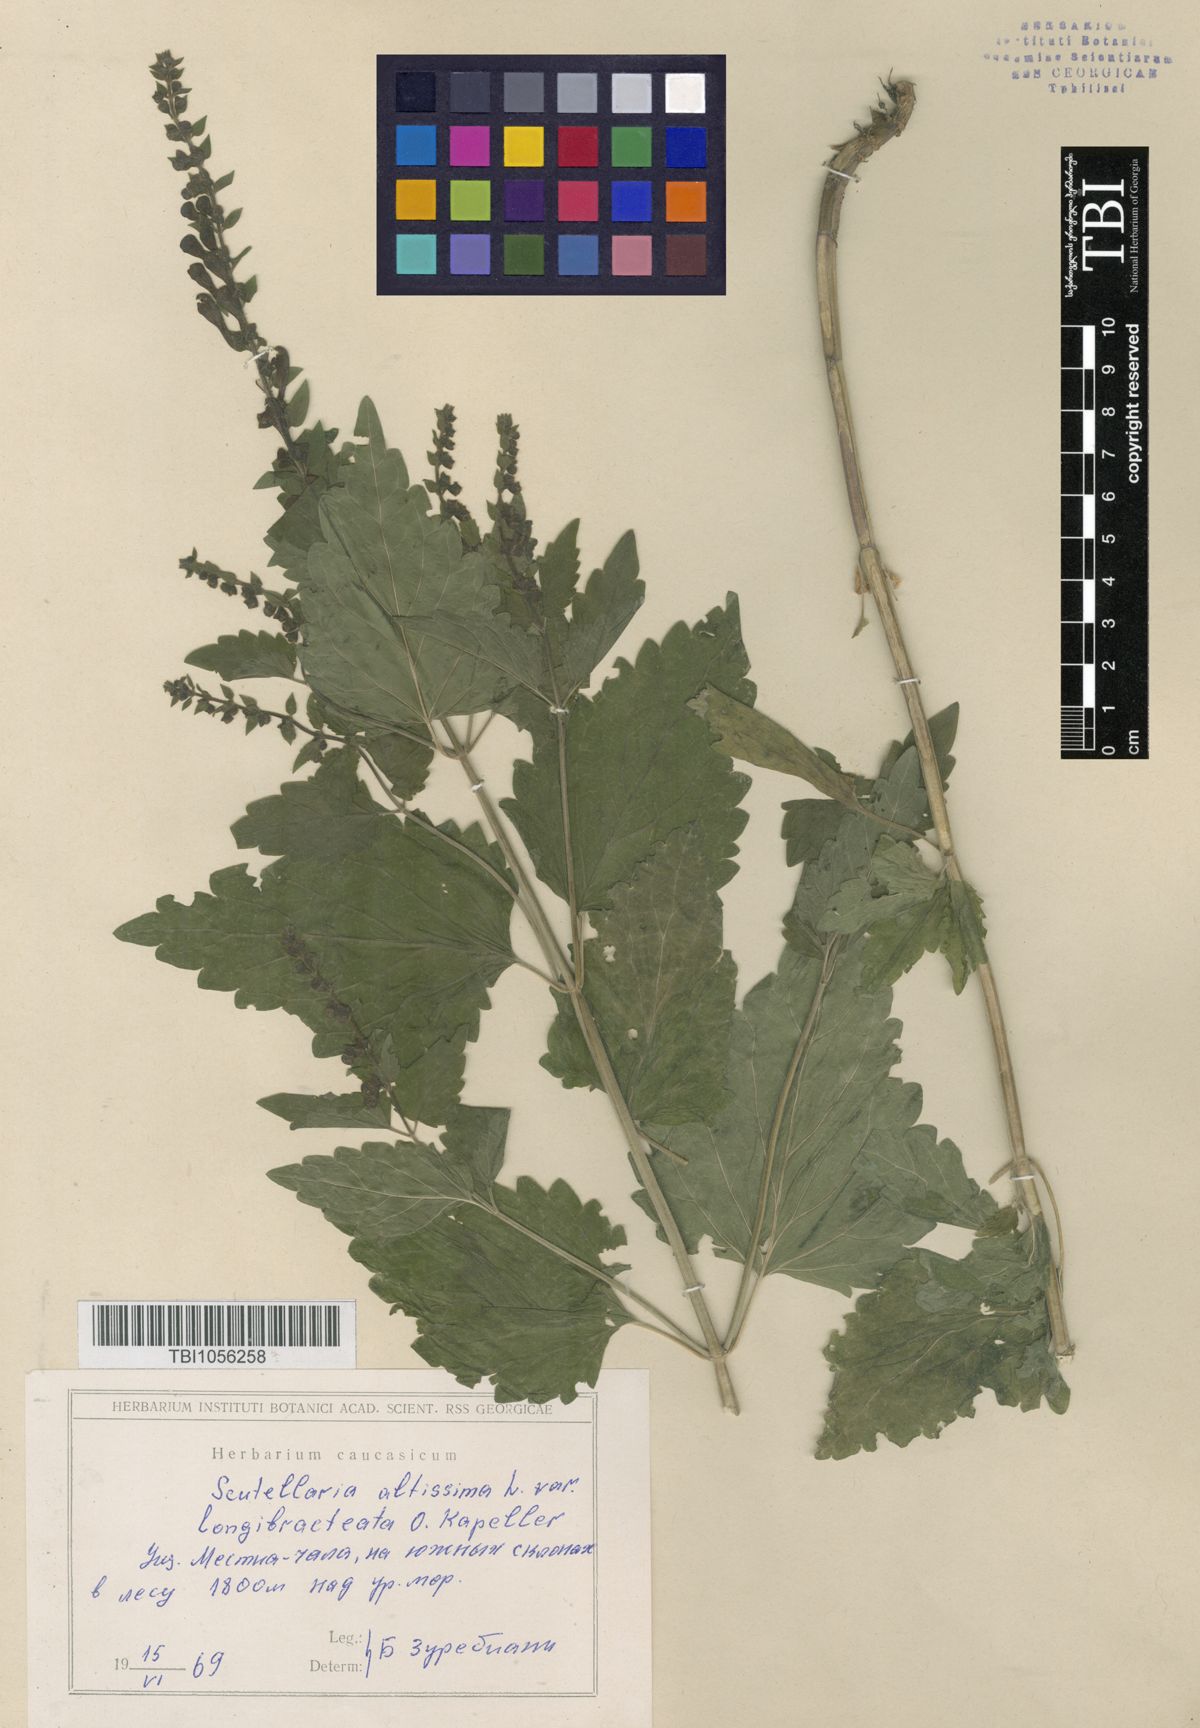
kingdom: Plantae
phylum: Tracheophyta
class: Magnoliopsida
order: Lamiales
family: Lamiaceae
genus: Scutellaria
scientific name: Scutellaria altissima
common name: Somerset skullcap
